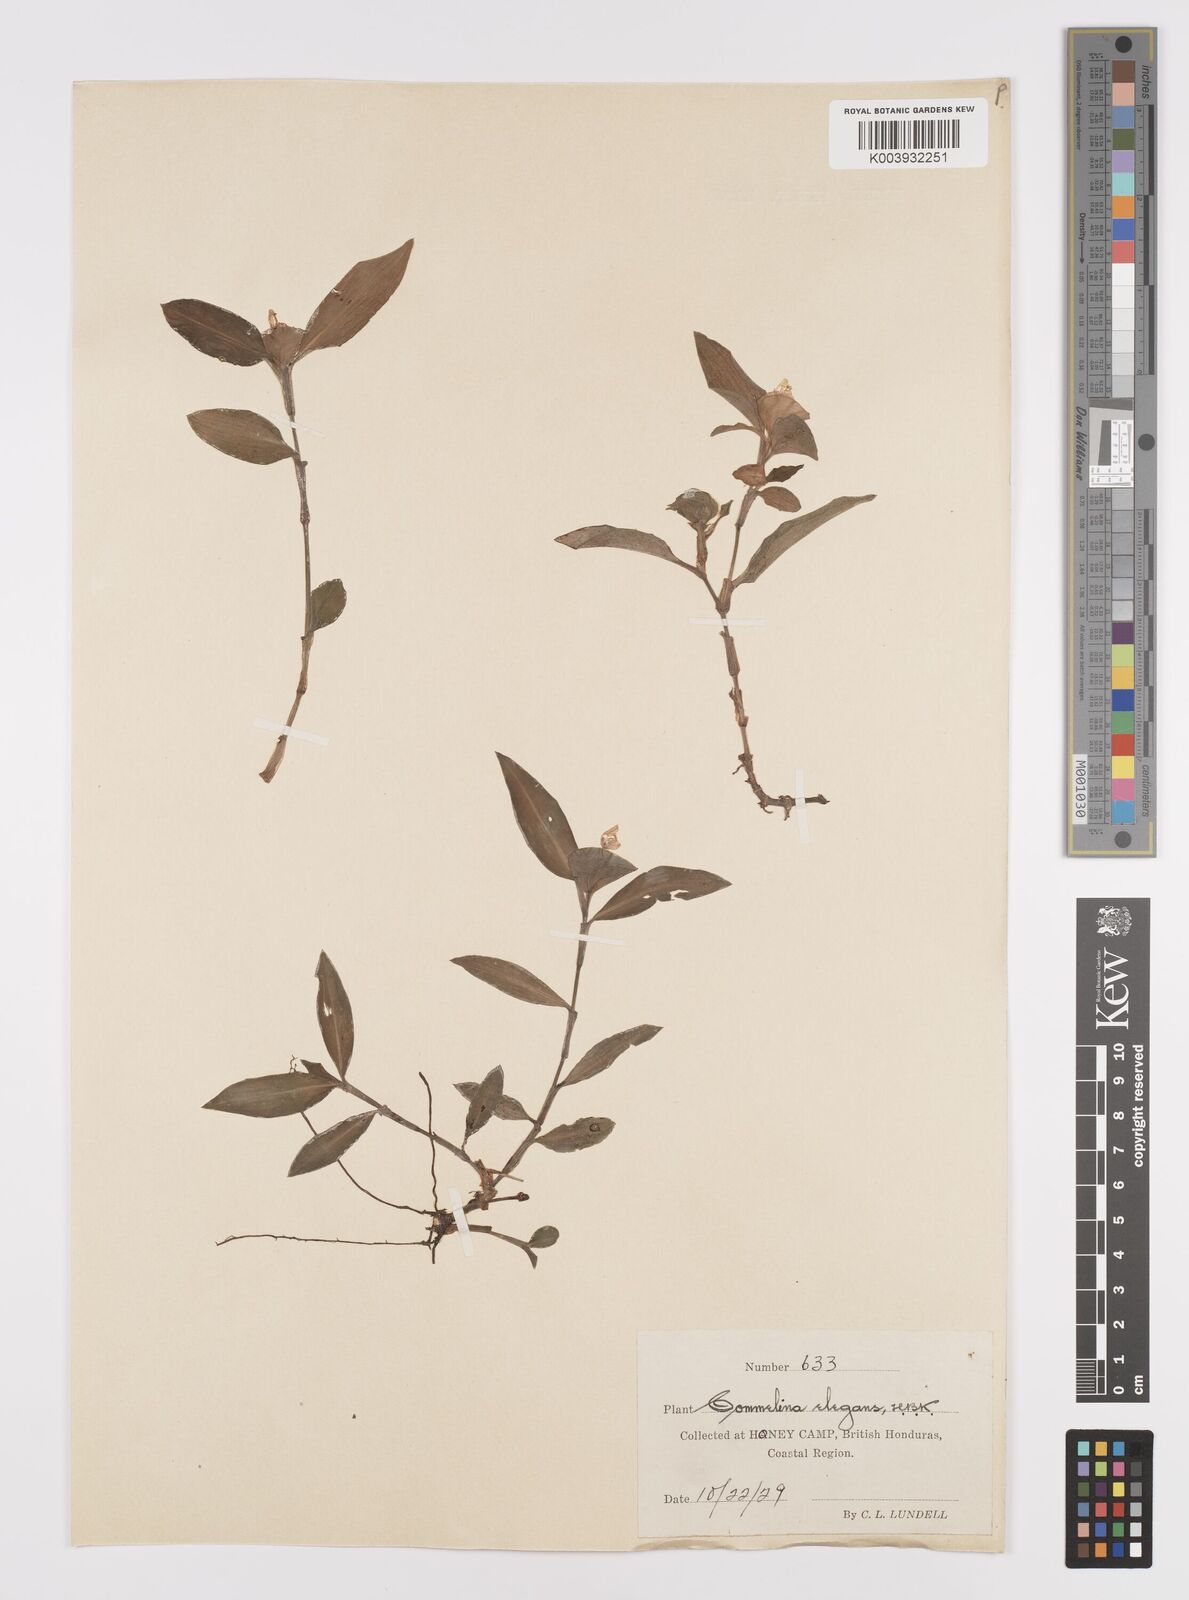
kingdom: Plantae
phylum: Tracheophyta
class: Liliopsida
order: Commelinales
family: Commelinaceae
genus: Commelina
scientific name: Commelina erecta
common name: Blousel blommetjie
